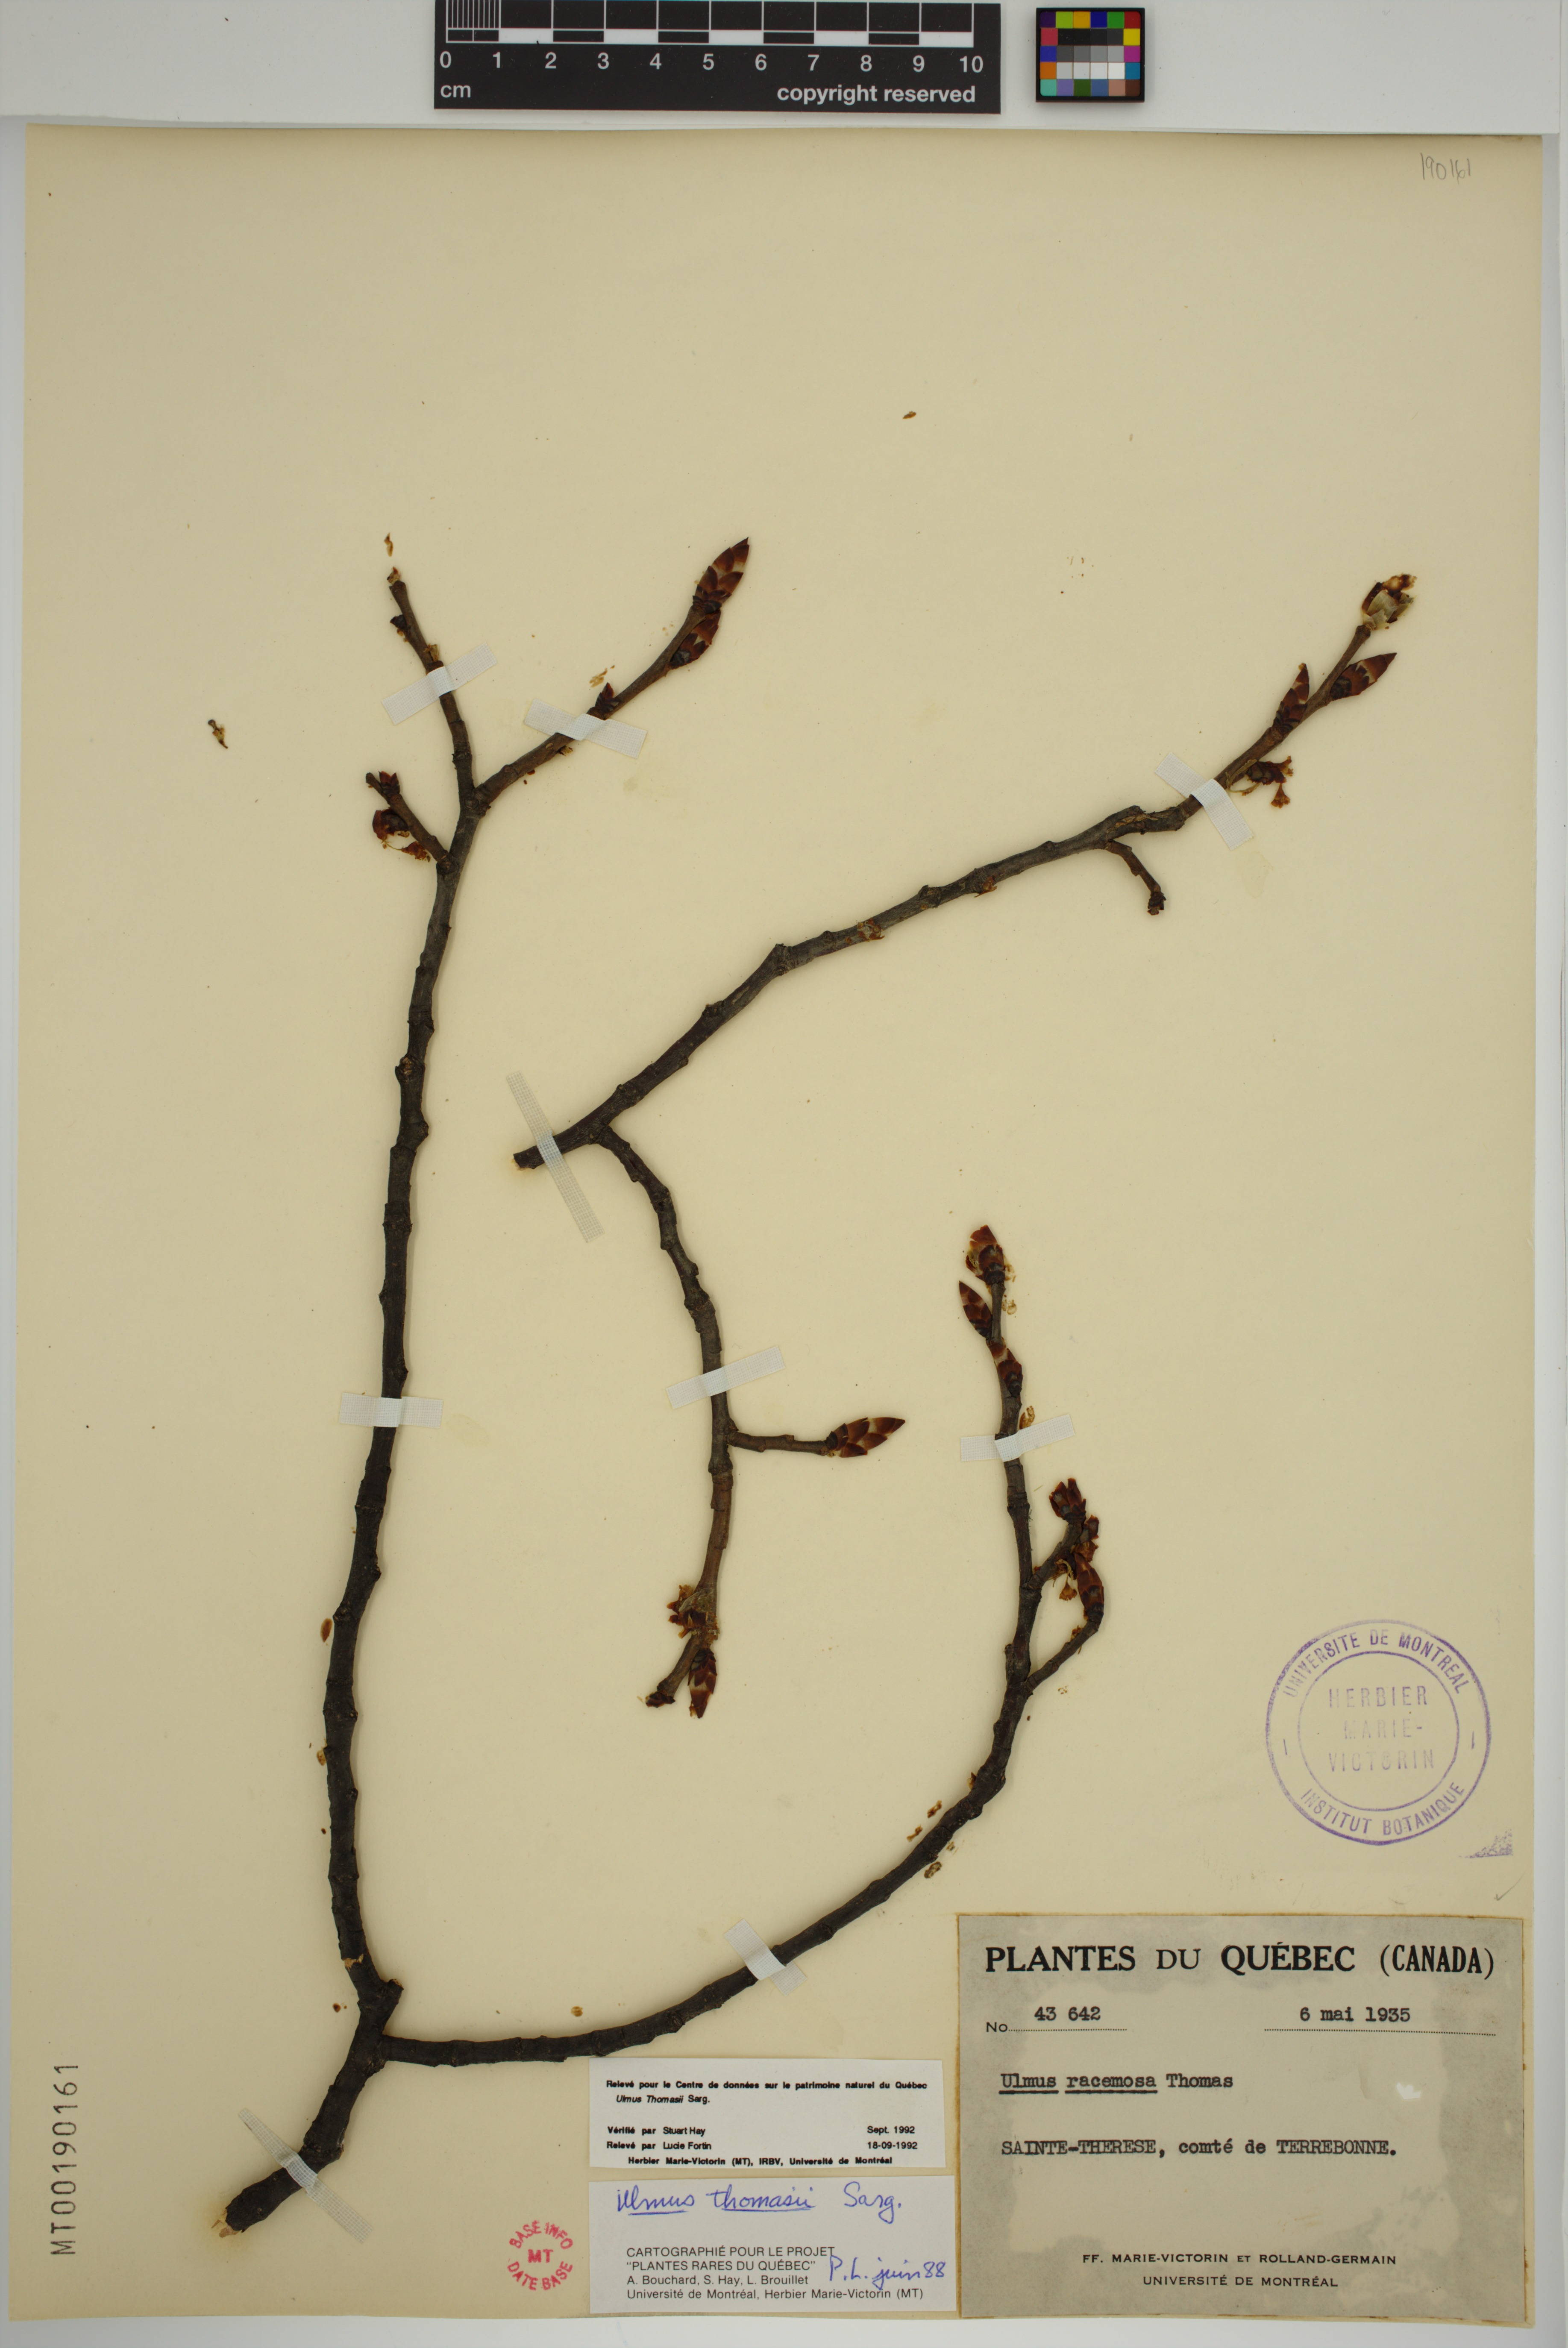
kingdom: Plantae
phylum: Tracheophyta
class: Magnoliopsida
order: Rosales
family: Ulmaceae
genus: Ulmus
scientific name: Ulmus thomasii
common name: Rock elm
